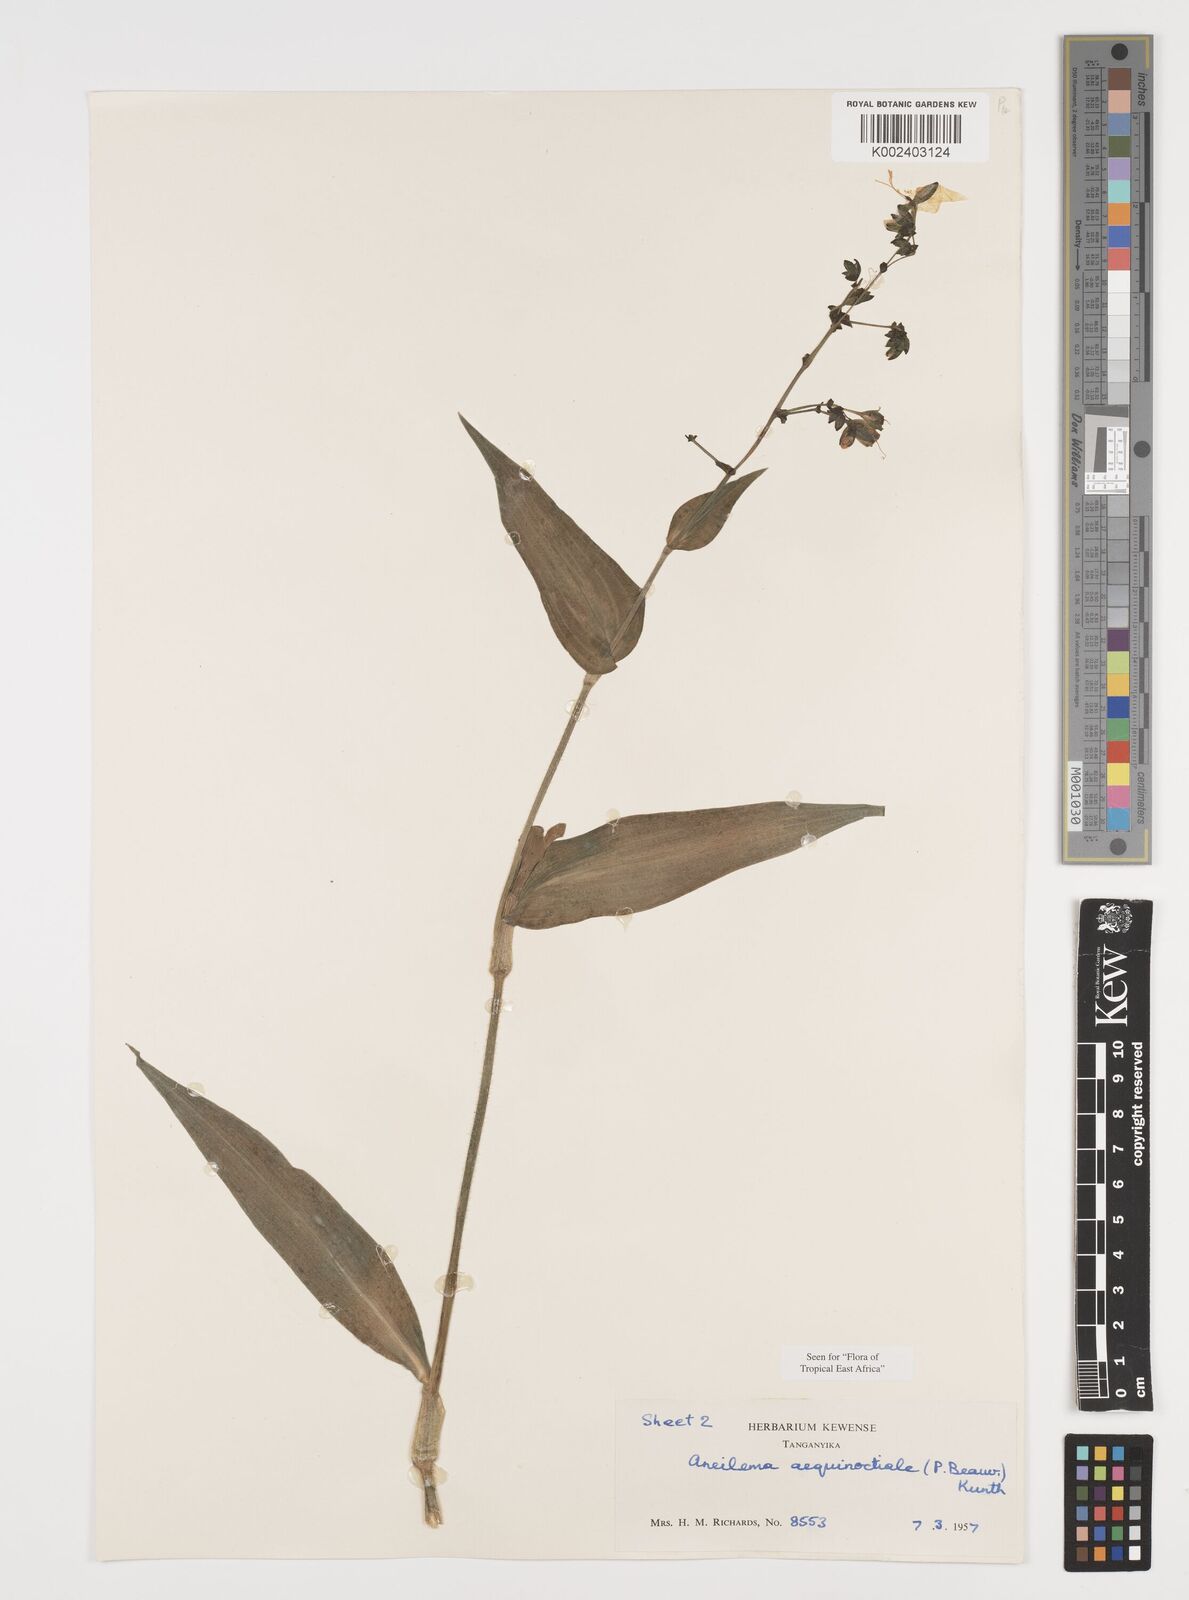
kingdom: Plantae
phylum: Tracheophyta
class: Liliopsida
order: Commelinales
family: Commelinaceae
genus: Aneilema
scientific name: Aneilema aequinoctiale
